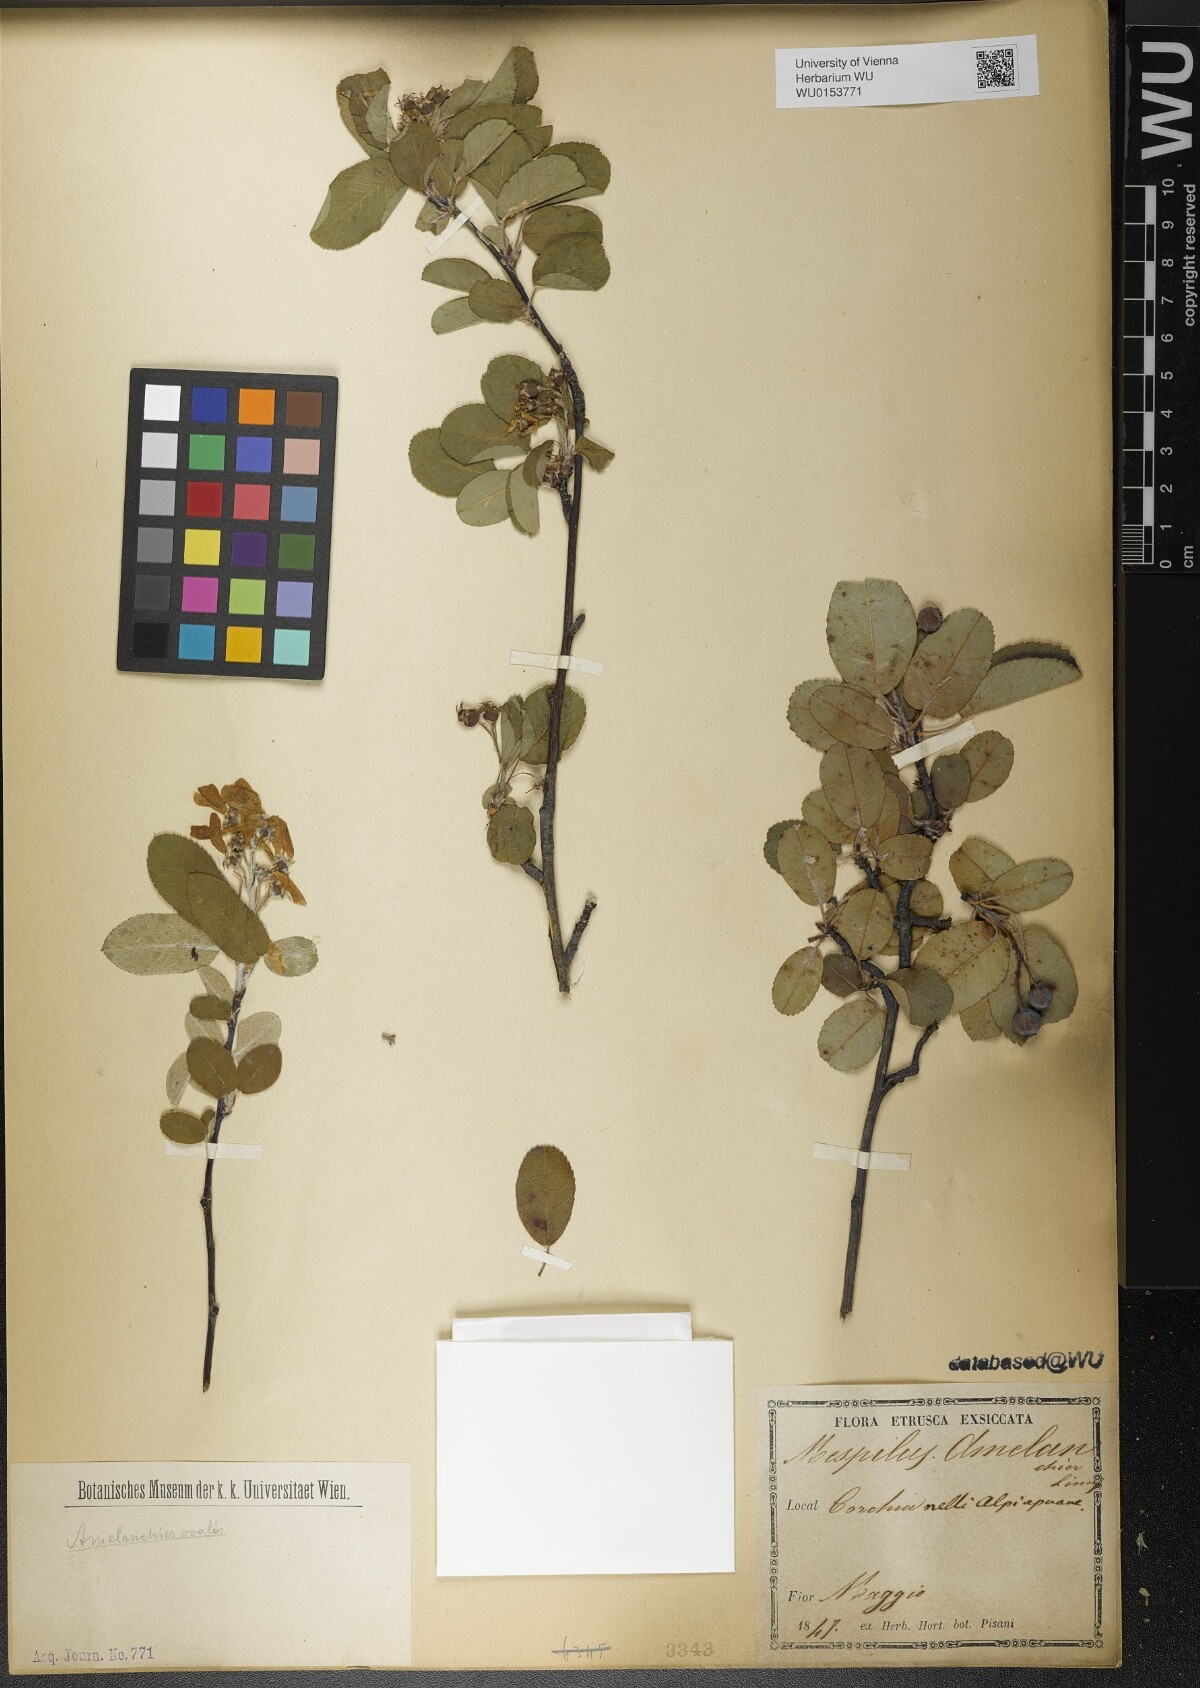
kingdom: Plantae
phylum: Tracheophyta
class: Magnoliopsida
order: Rosales
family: Rosaceae
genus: Amelanchier
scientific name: Amelanchier ovalis
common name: Serviceberry
